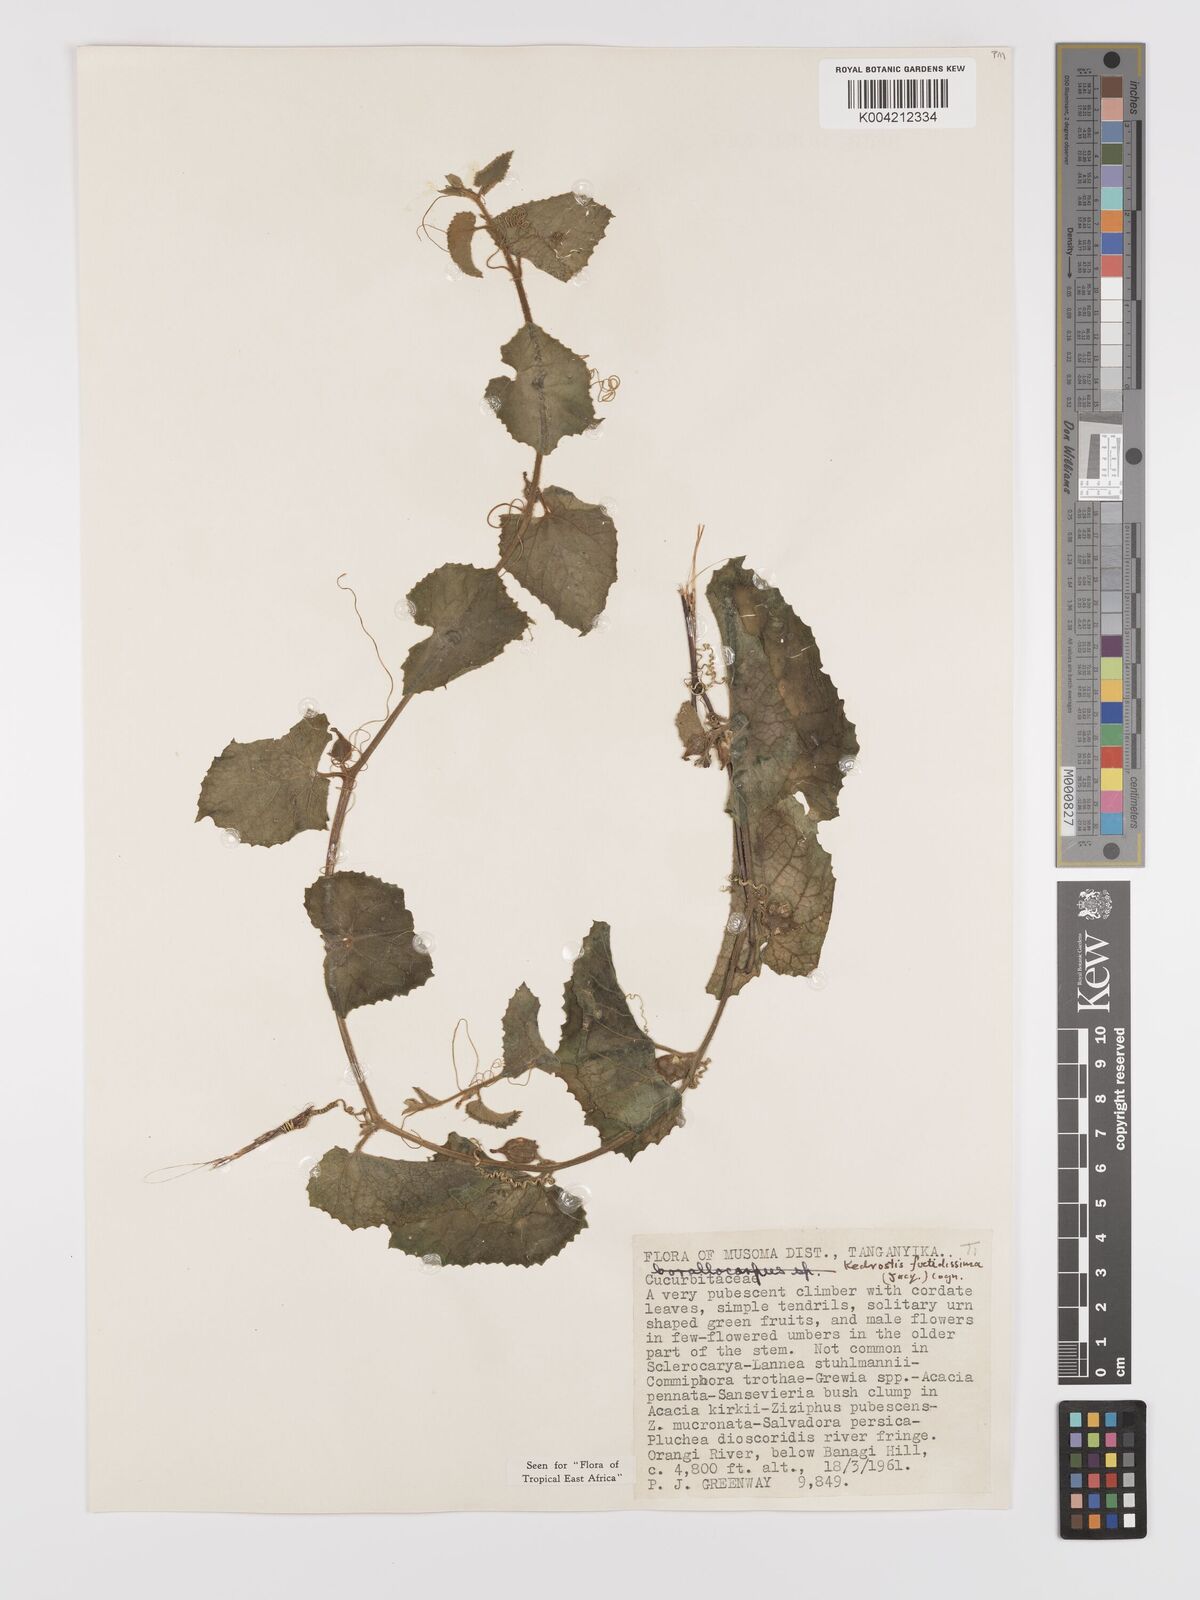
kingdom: Plantae
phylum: Tracheophyta
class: Magnoliopsida
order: Cucurbitales
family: Cucurbitaceae
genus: Kedrostis
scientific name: Kedrostis foetidissima
